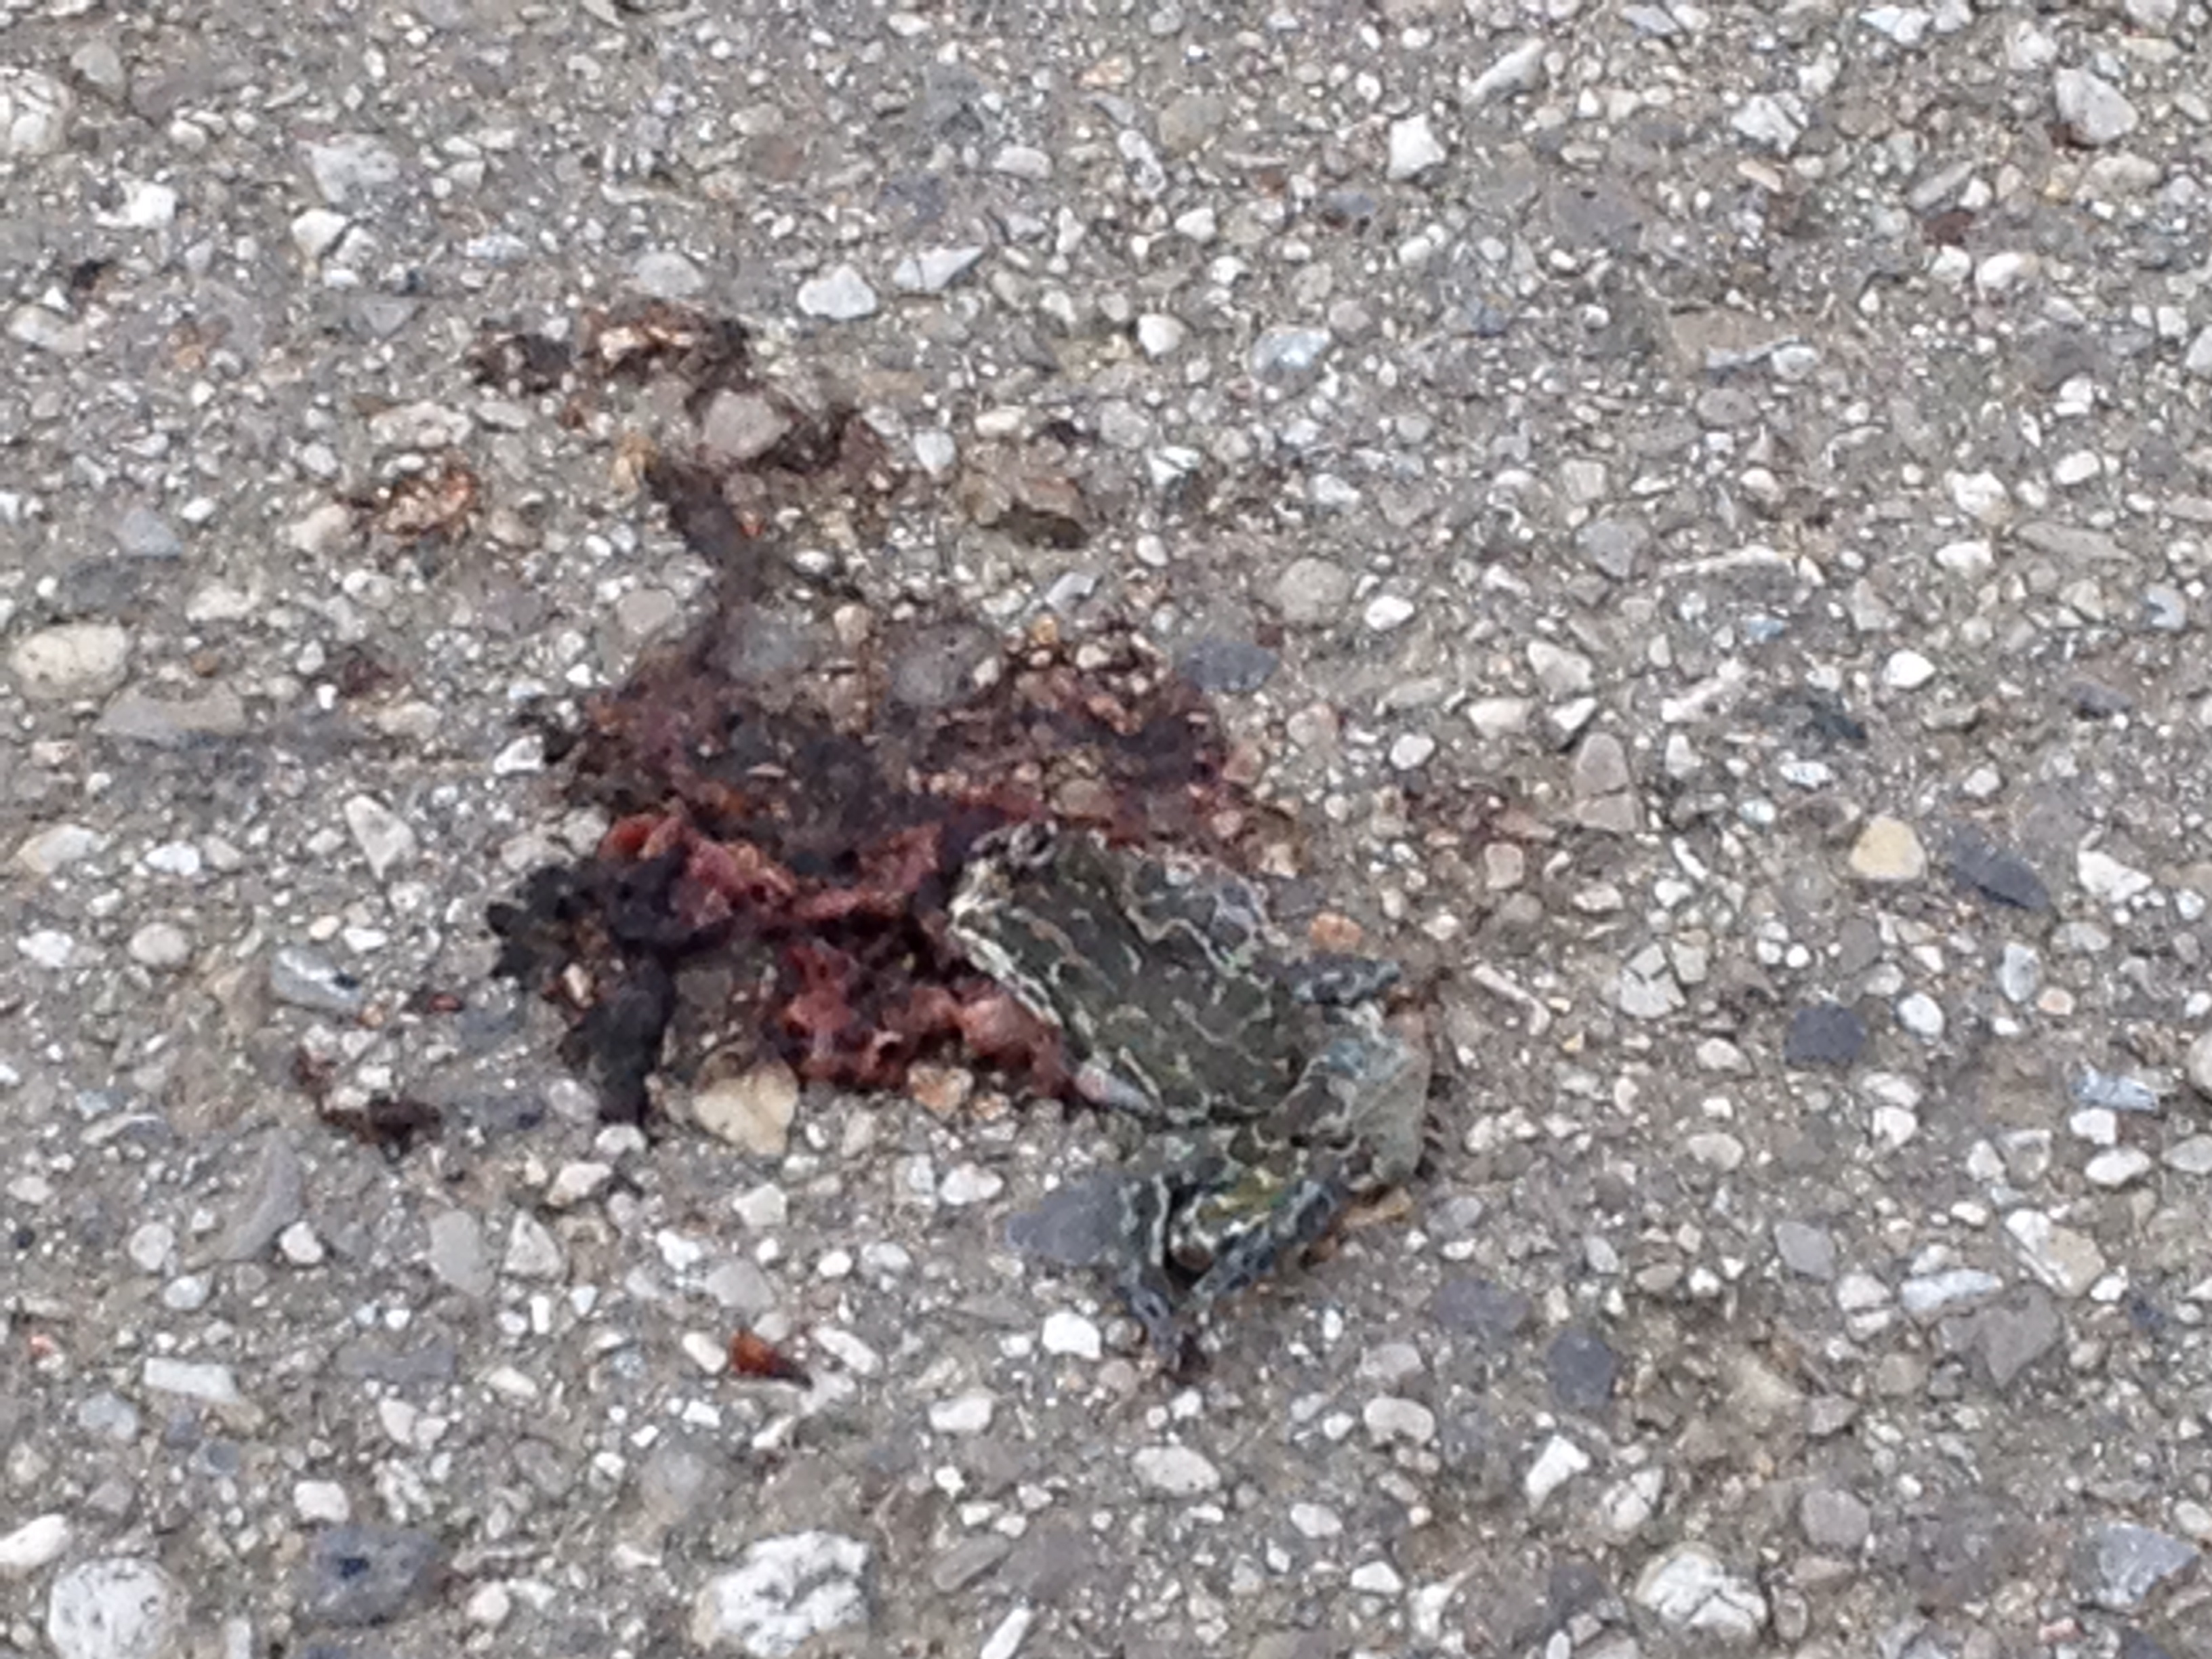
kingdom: Animalia
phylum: Chordata
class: Amphibia
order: Anura
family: Bufonidae
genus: Bufotes
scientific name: Bufotes viridis
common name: European green toad
